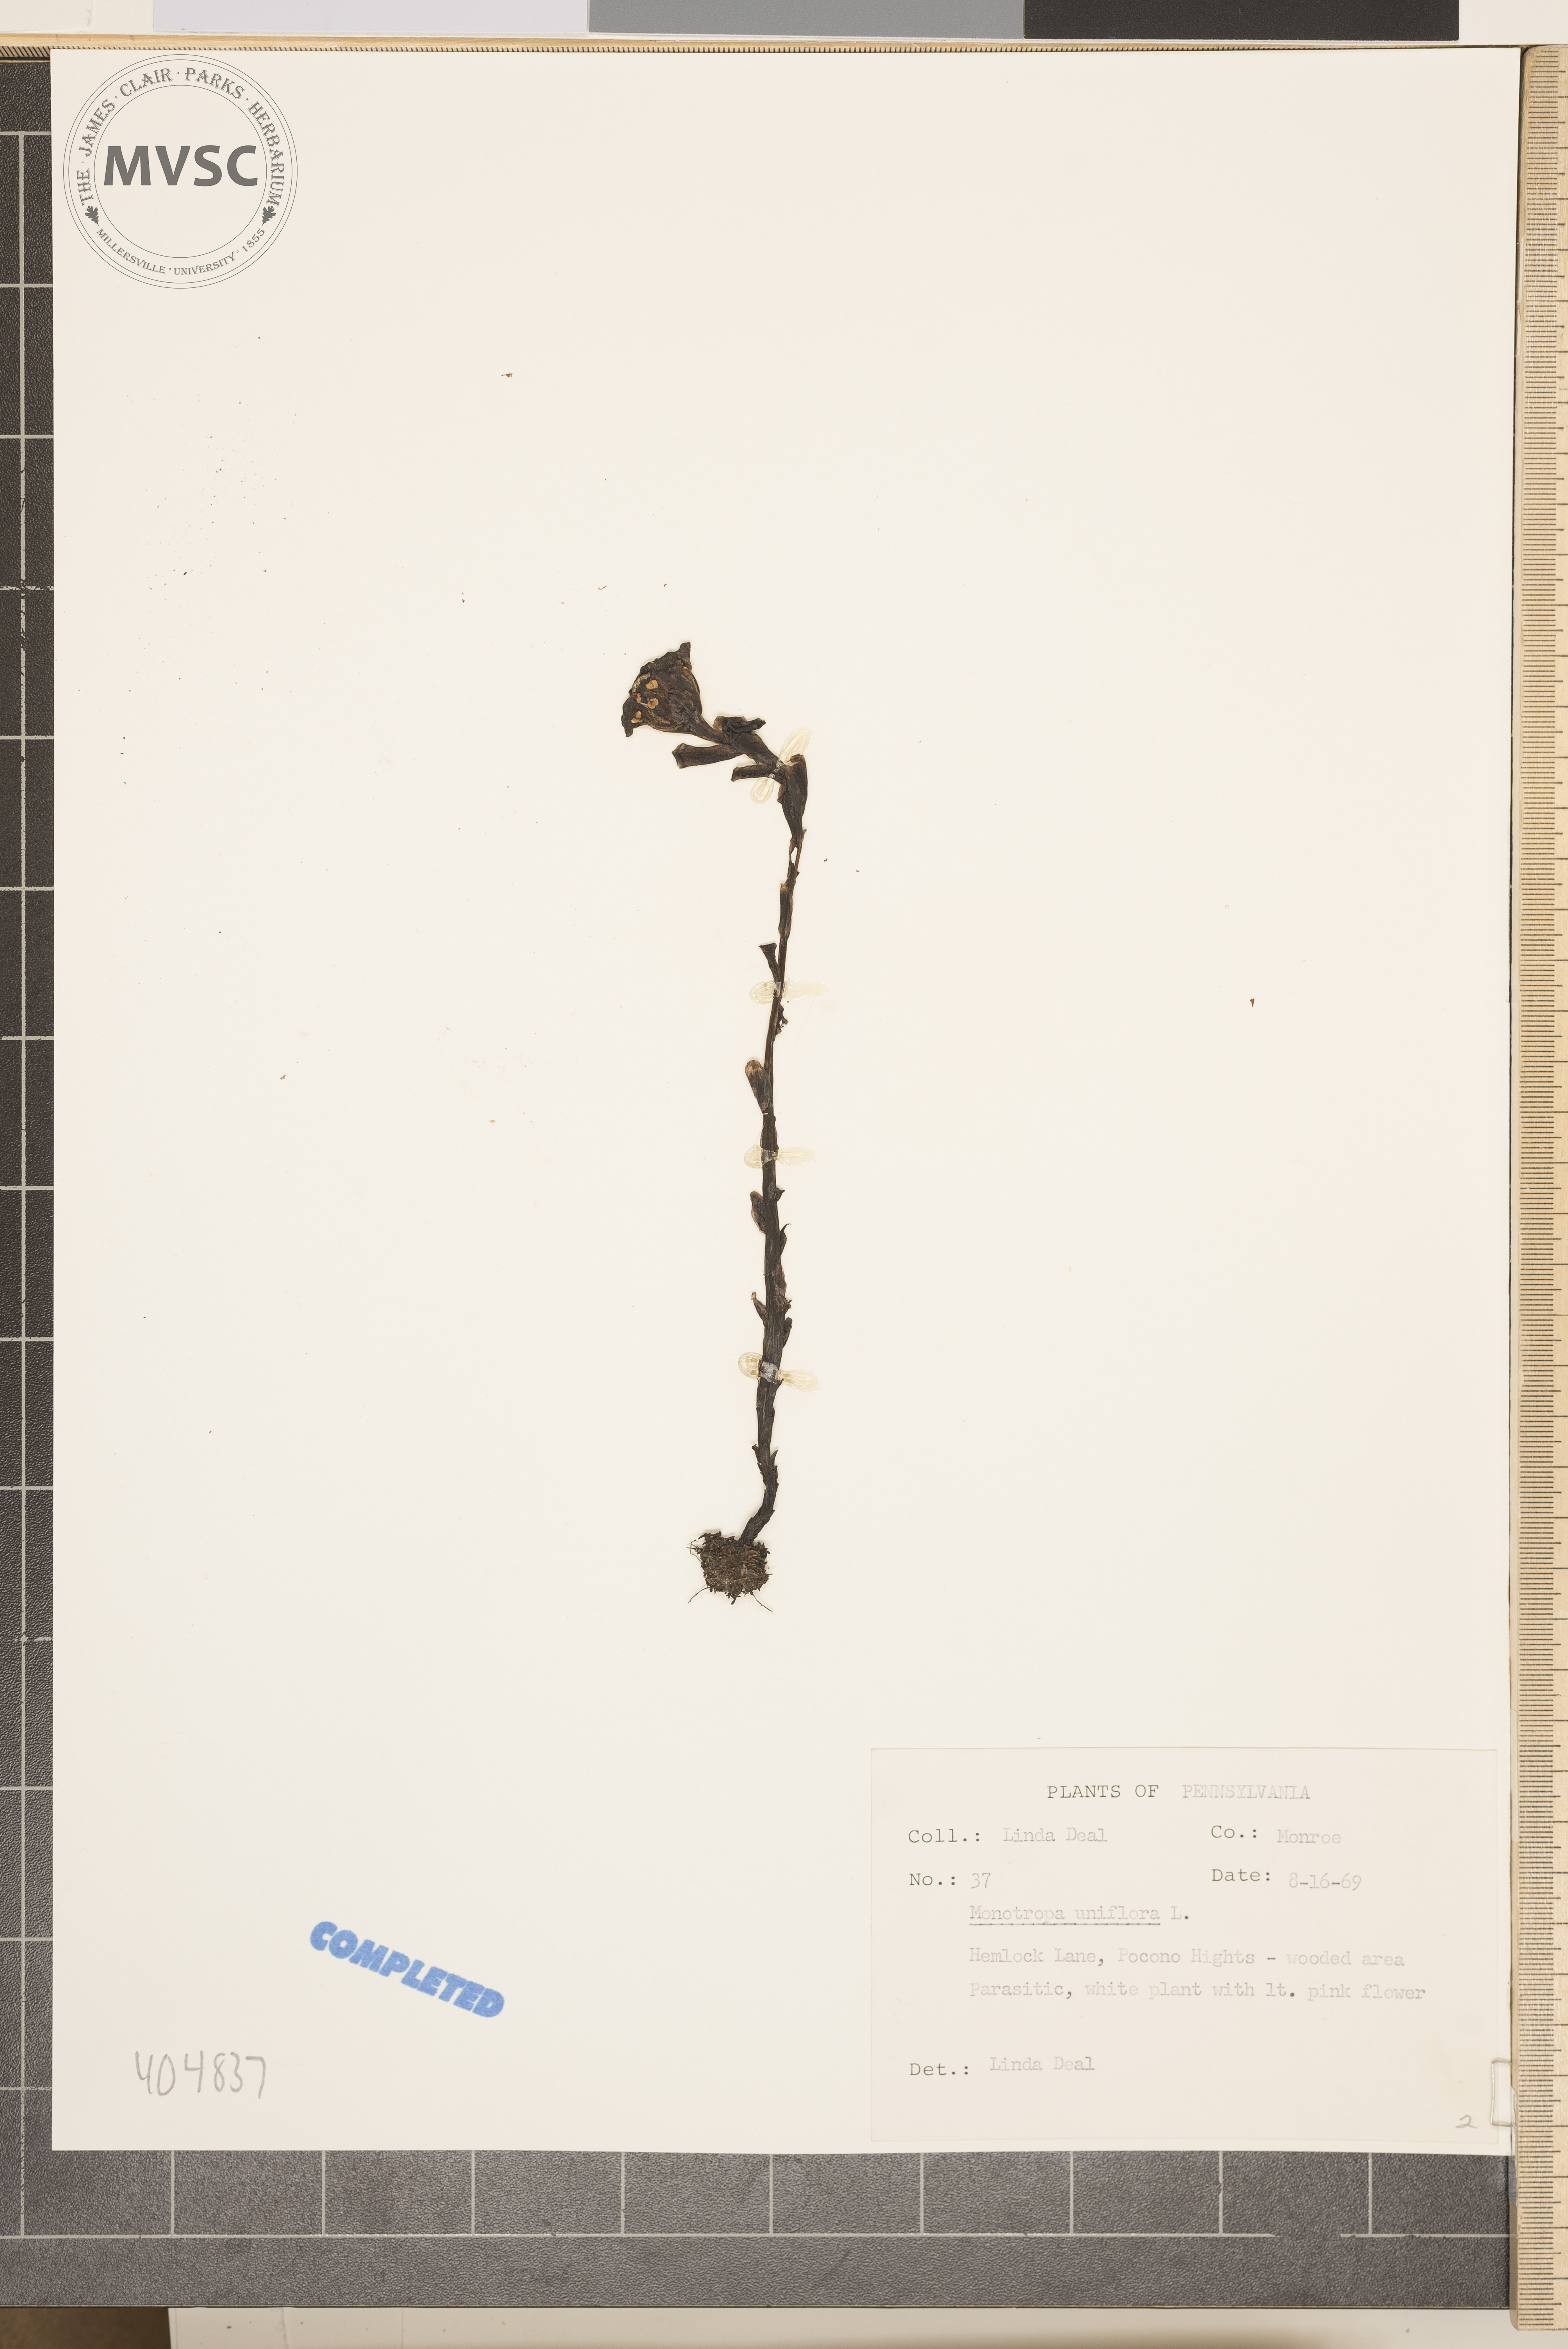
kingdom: Plantae
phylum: Tracheophyta
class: Magnoliopsida
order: Ericales
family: Ericaceae
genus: Monotropa
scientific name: Monotropa uniflora
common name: Convulsion root
